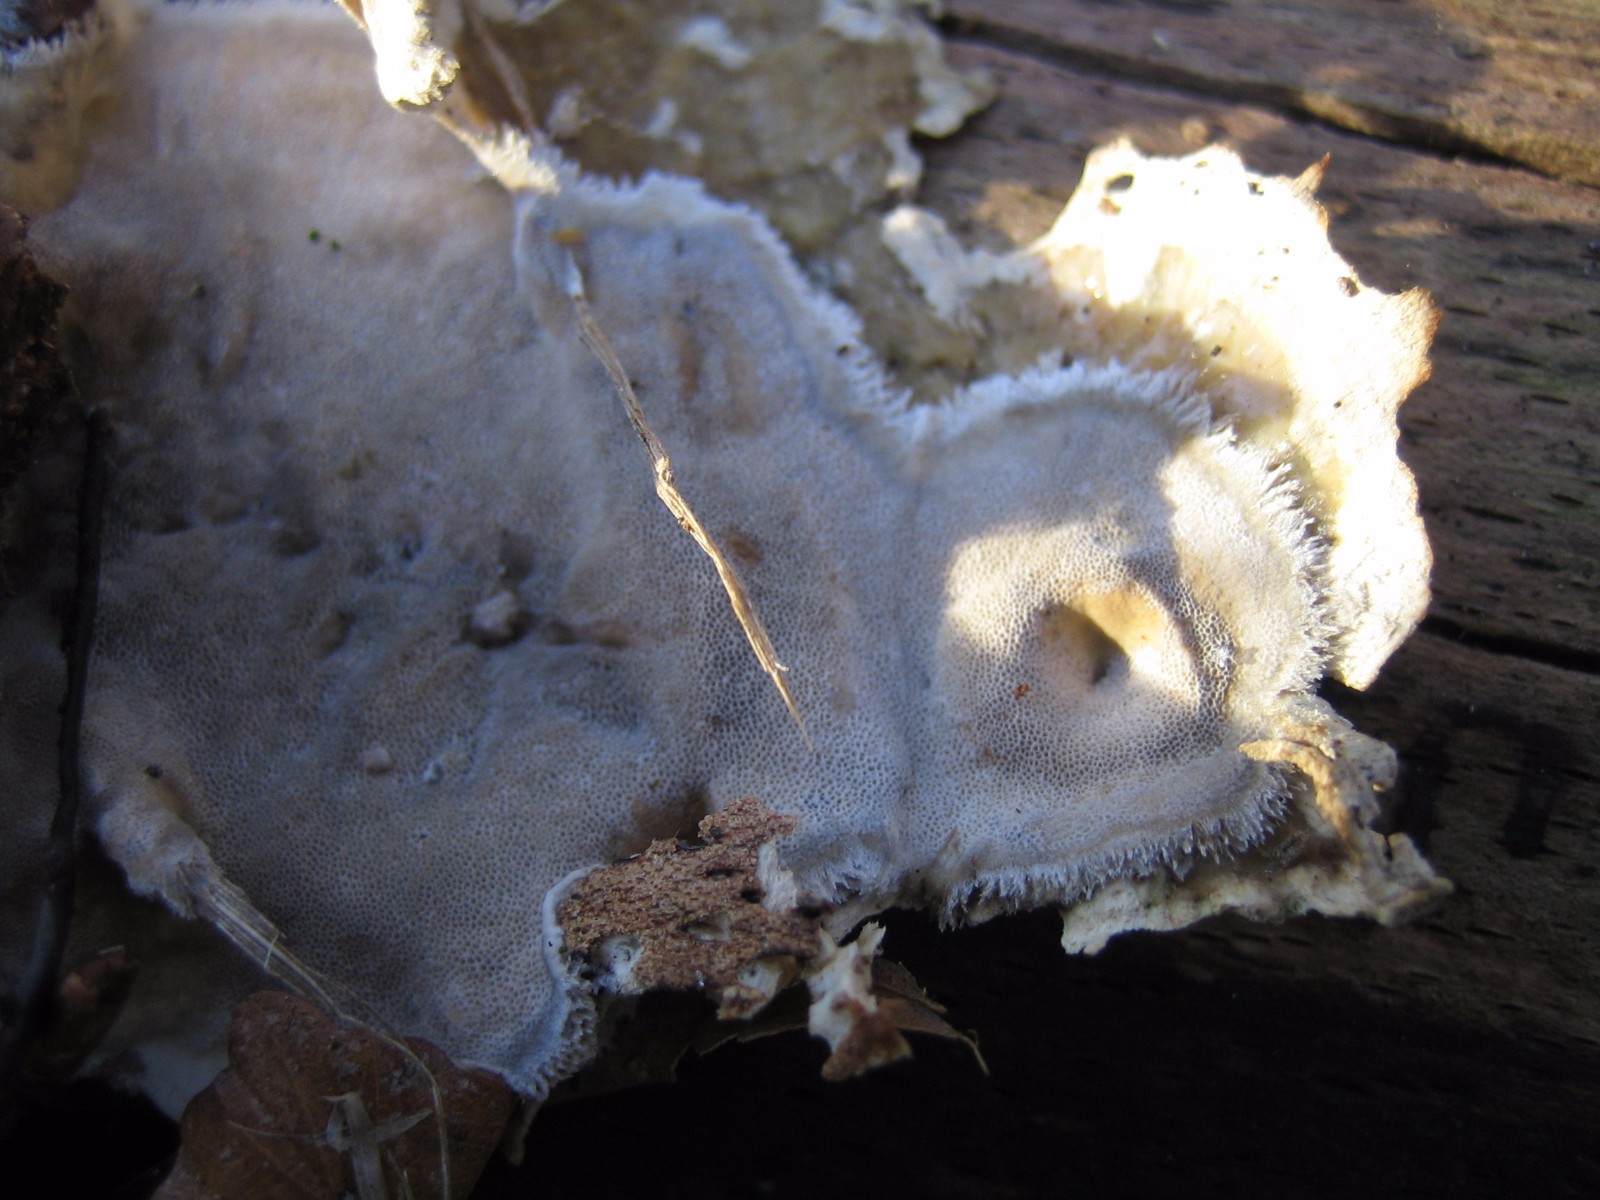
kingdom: Fungi
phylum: Basidiomycota
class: Agaricomycetes
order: Polyporales
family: Phanerochaetaceae
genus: Bjerkandera
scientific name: Bjerkandera adusta
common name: sveden sodporesvamp
